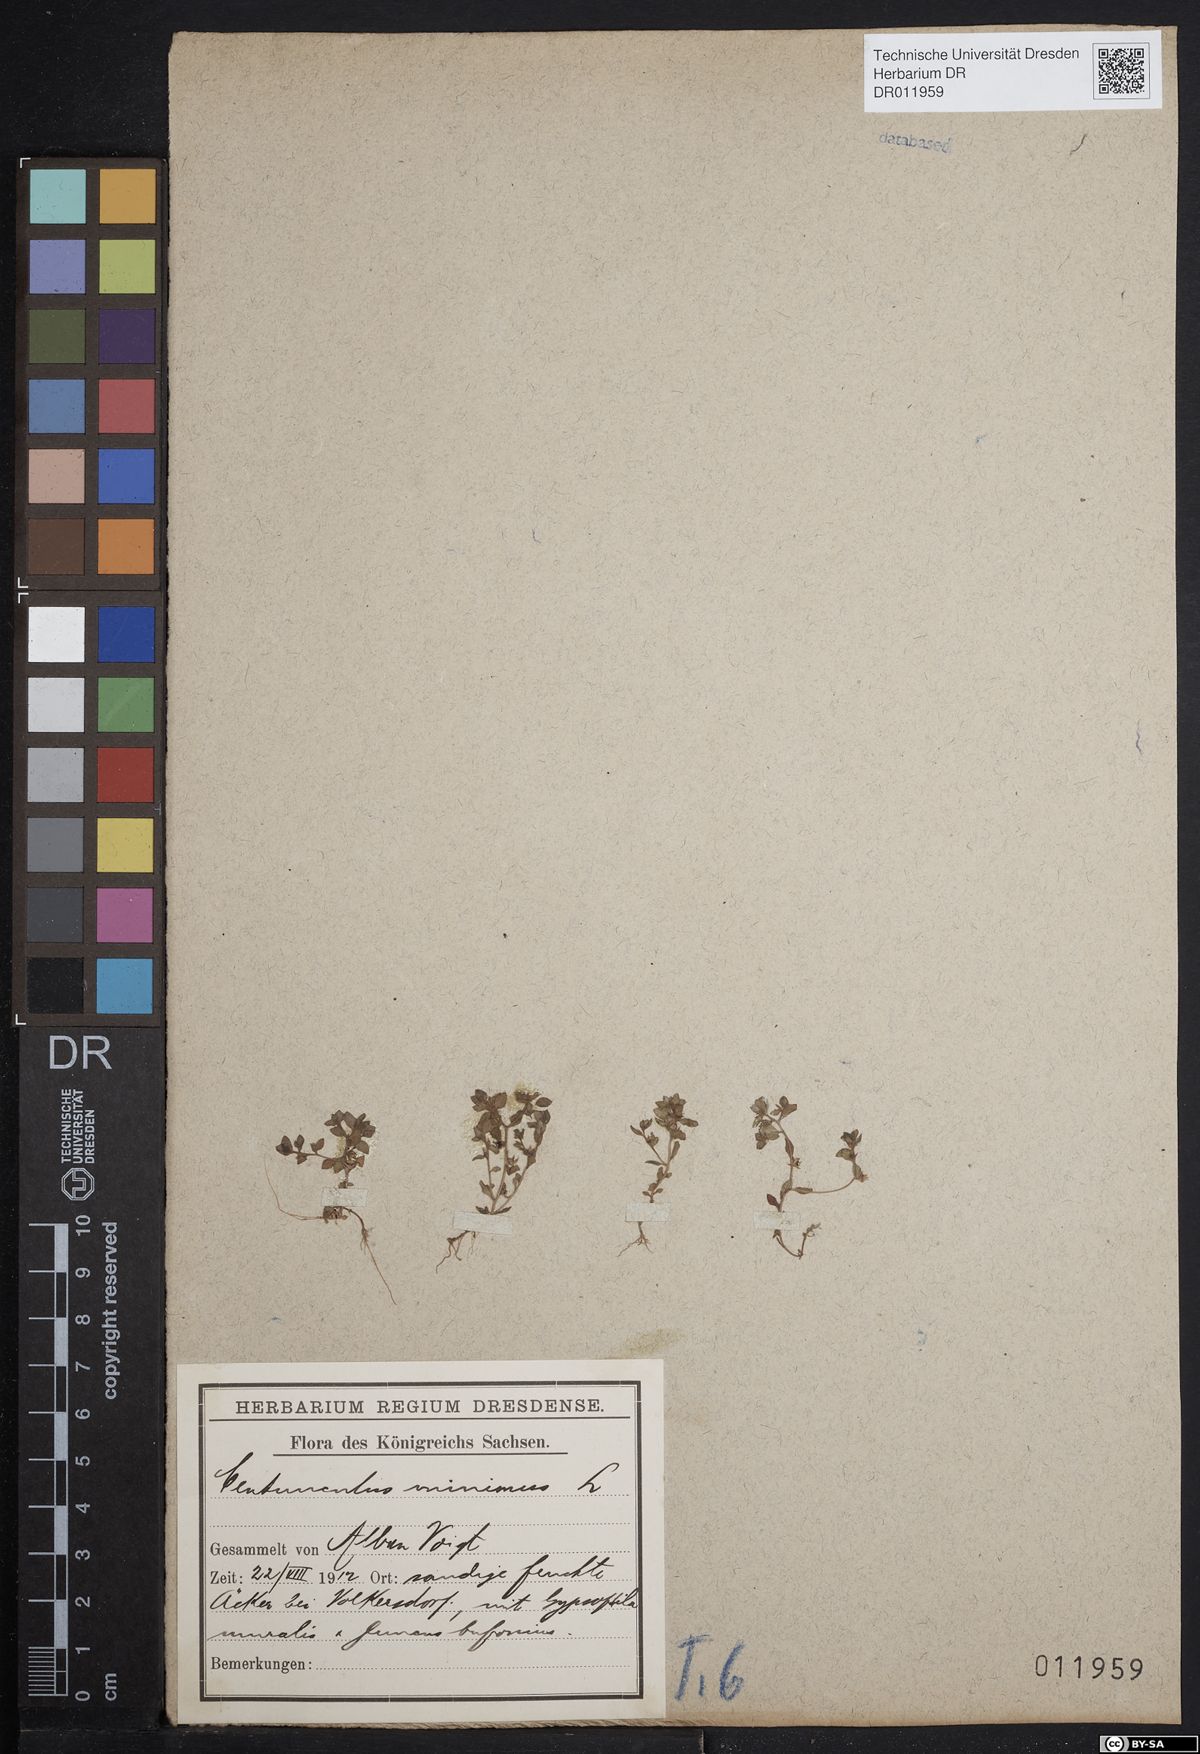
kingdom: Plantae
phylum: Tracheophyta
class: Magnoliopsida
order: Ericales
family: Primulaceae
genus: Lysimachia
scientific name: Lysimachia minima
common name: Chaffweed
